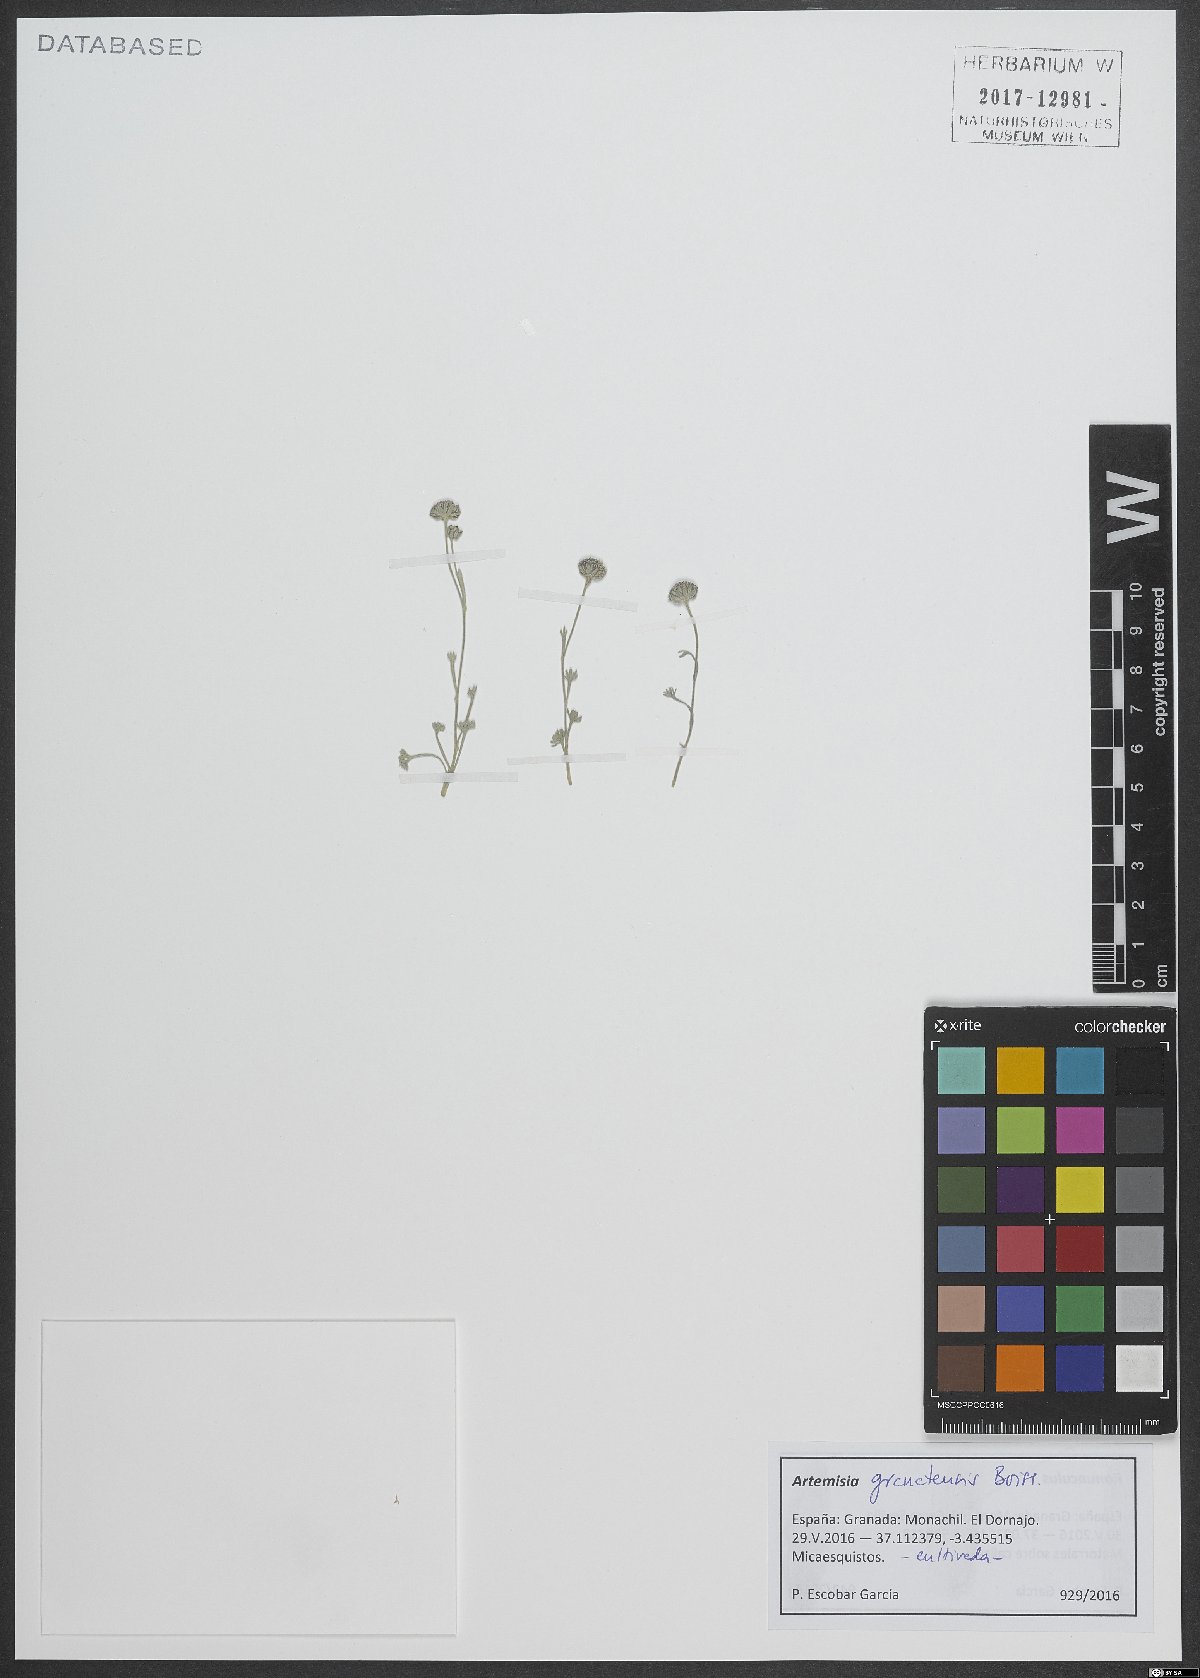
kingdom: Plantae
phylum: Tracheophyta
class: Magnoliopsida
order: Asterales
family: Asteraceae
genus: Artemisia
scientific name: Artemisia granatensis
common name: Royal chamomile
